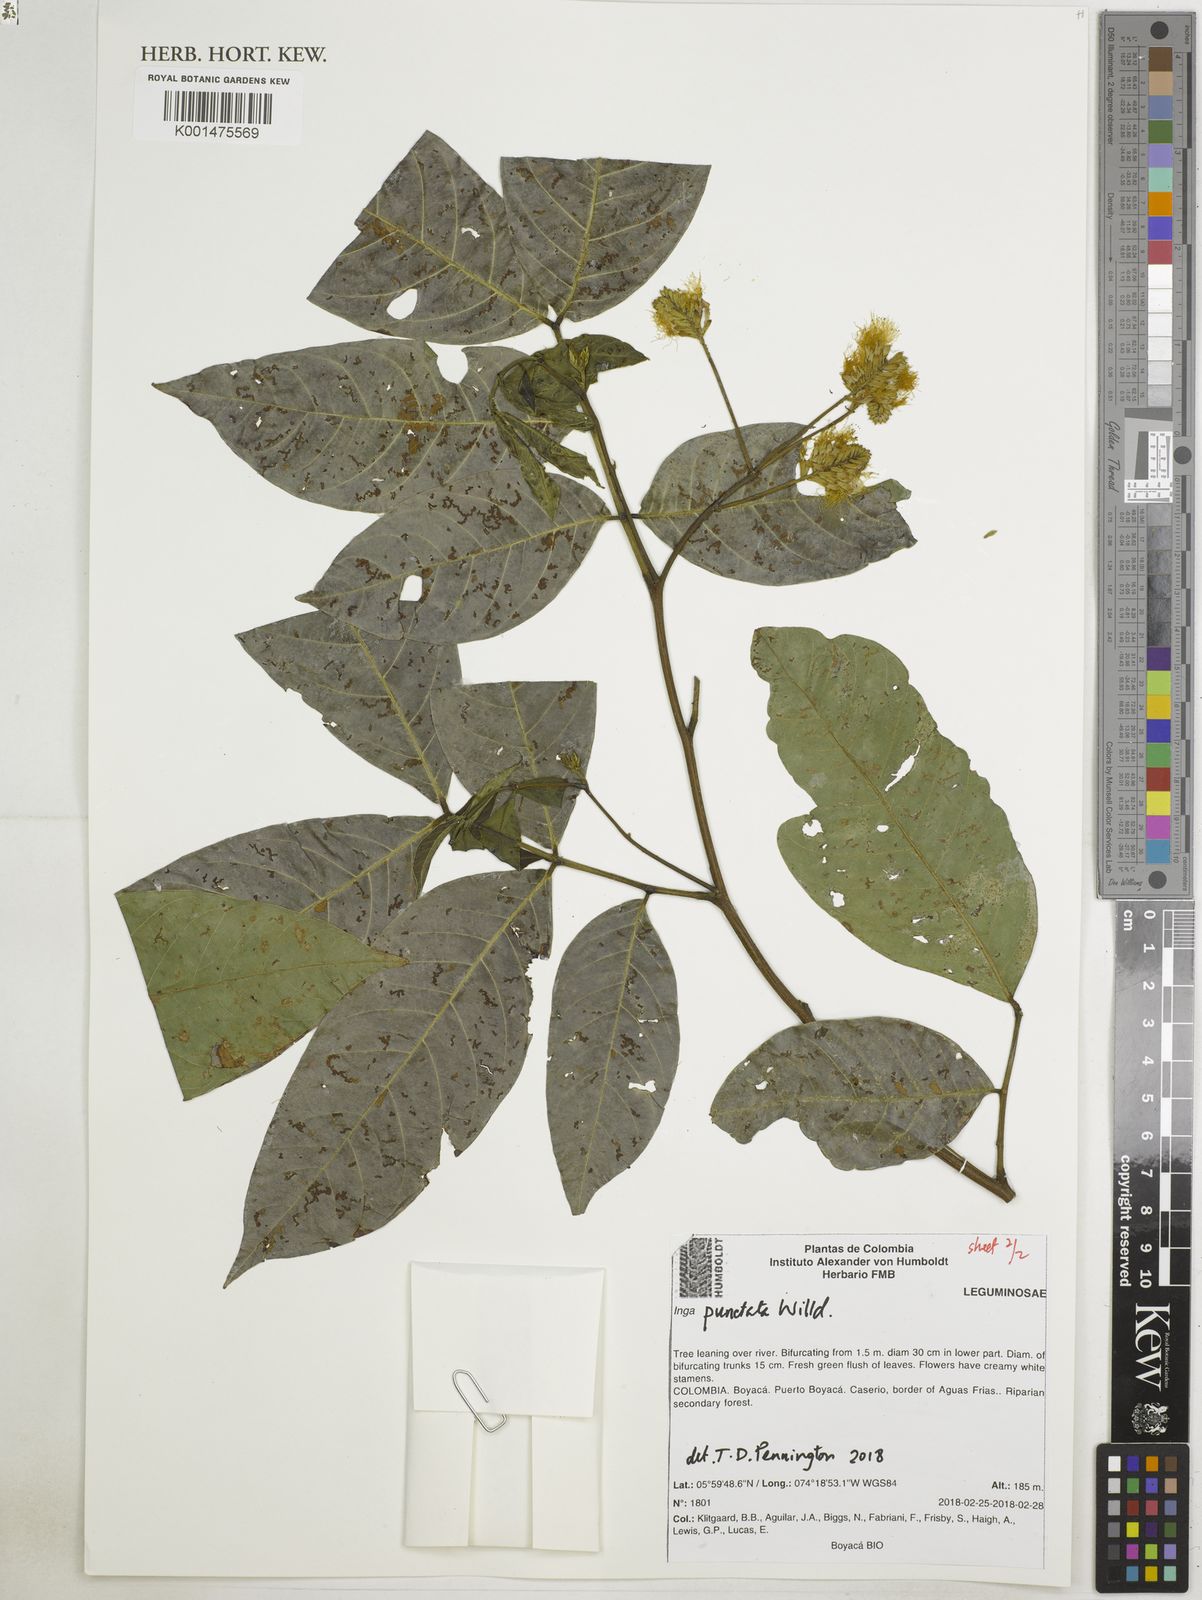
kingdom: Plantae
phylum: Tracheophyta
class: Magnoliopsida
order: Fabales
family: Fabaceae
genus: Inga
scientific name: Inga punctata
